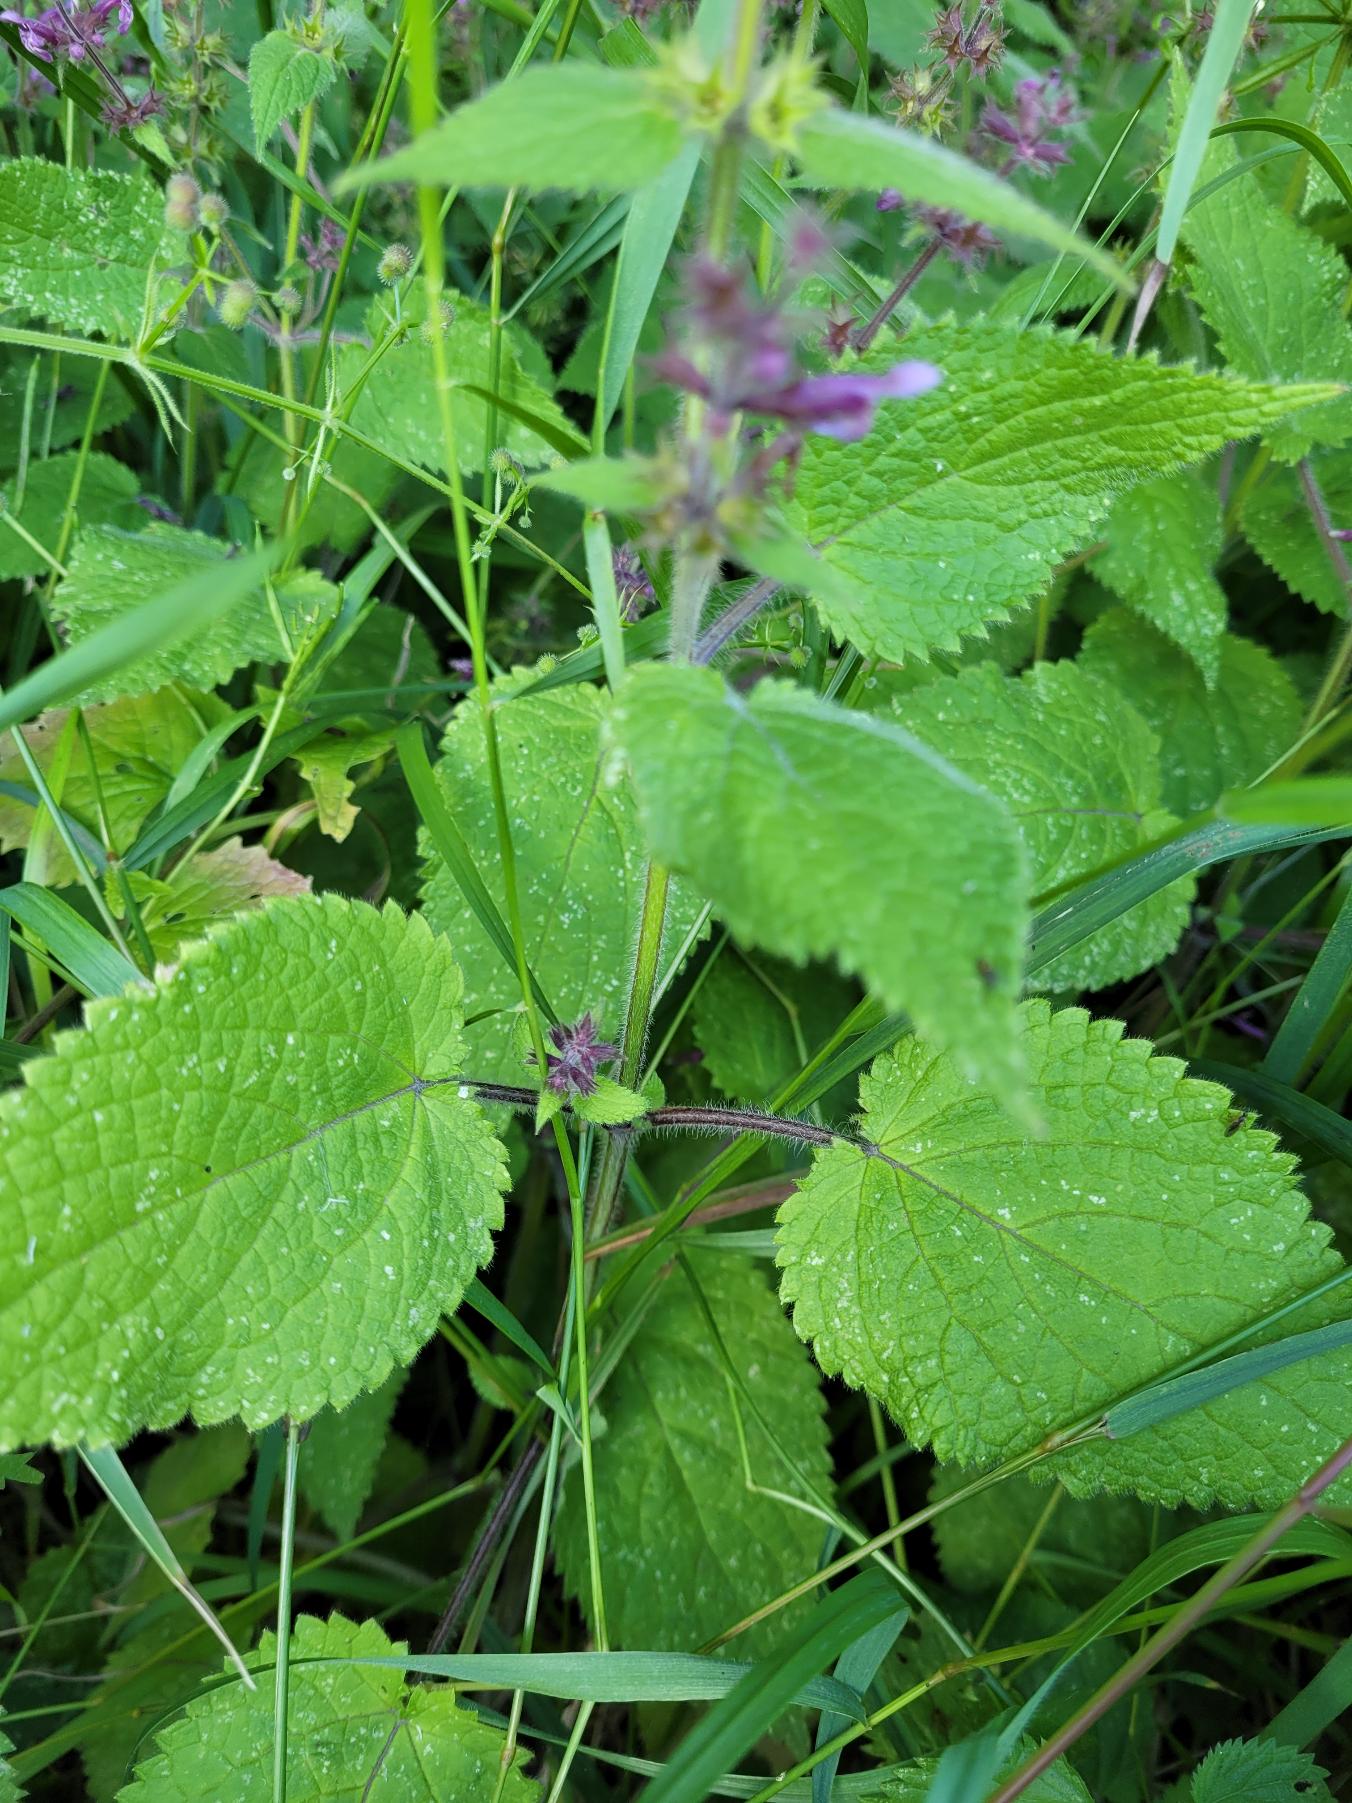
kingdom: Plantae
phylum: Tracheophyta
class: Magnoliopsida
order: Lamiales
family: Lamiaceae
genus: Stachys
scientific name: Stachys sylvatica
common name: Skov-galtetand
